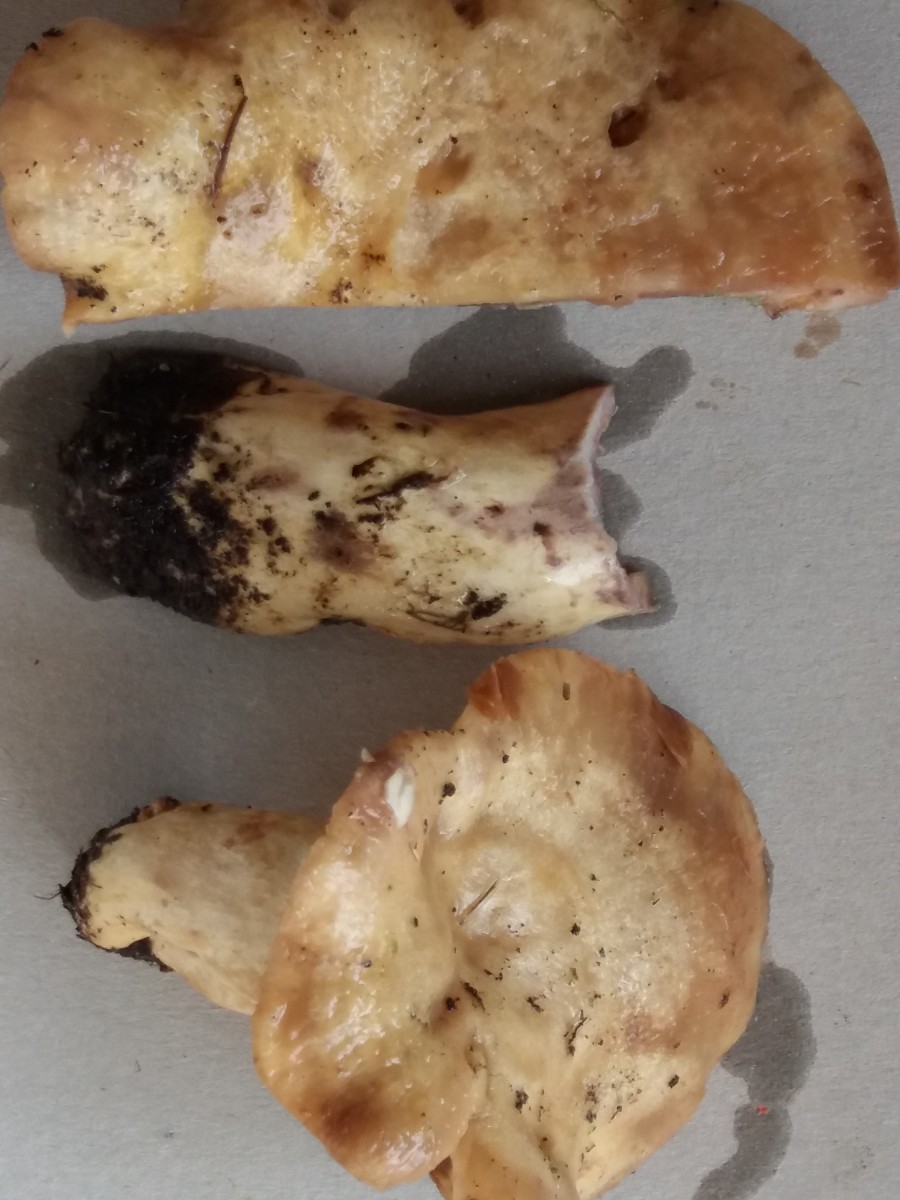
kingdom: Fungi
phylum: Basidiomycota
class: Agaricomycetes
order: Russulales
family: Russulaceae
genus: Lactarius
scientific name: Lactarius repraesentaneus
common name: prægtig mælkehat
